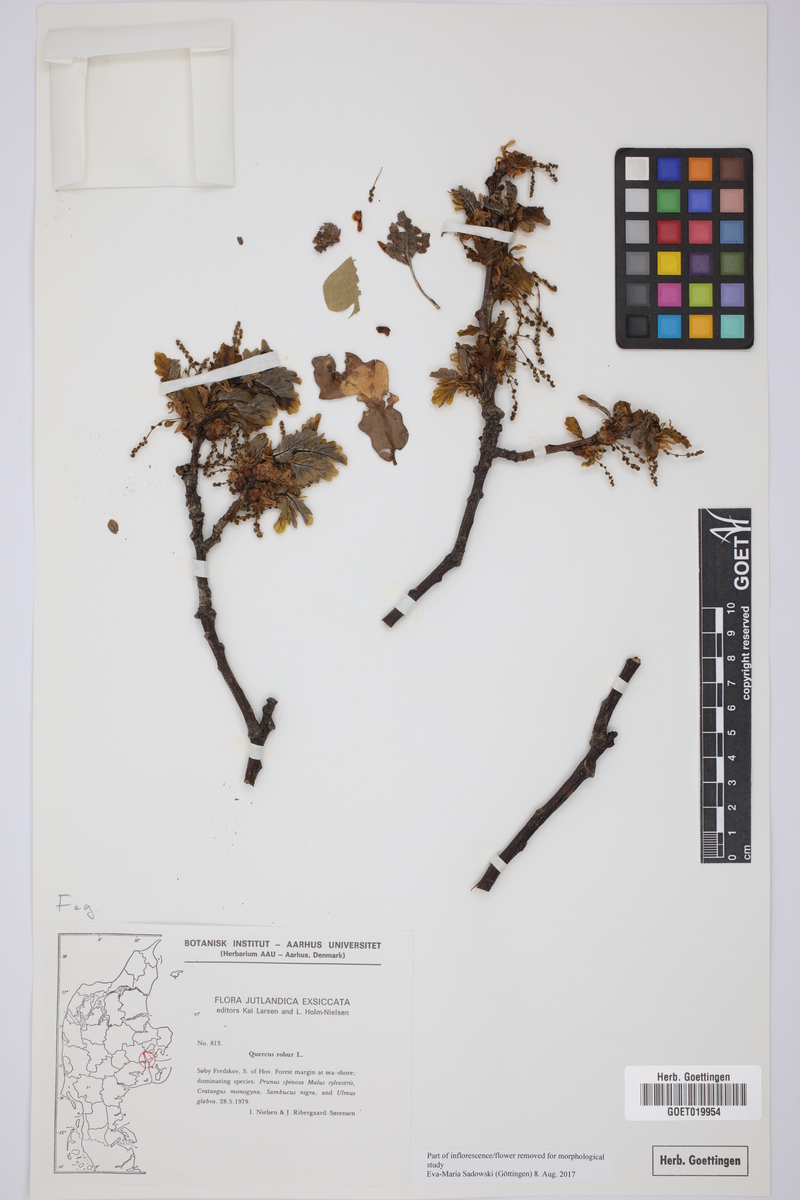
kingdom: Plantae
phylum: Tracheophyta
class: Magnoliopsida
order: Fagales
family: Fagaceae
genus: Quercus
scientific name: Quercus robur
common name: Pedunculate oak
